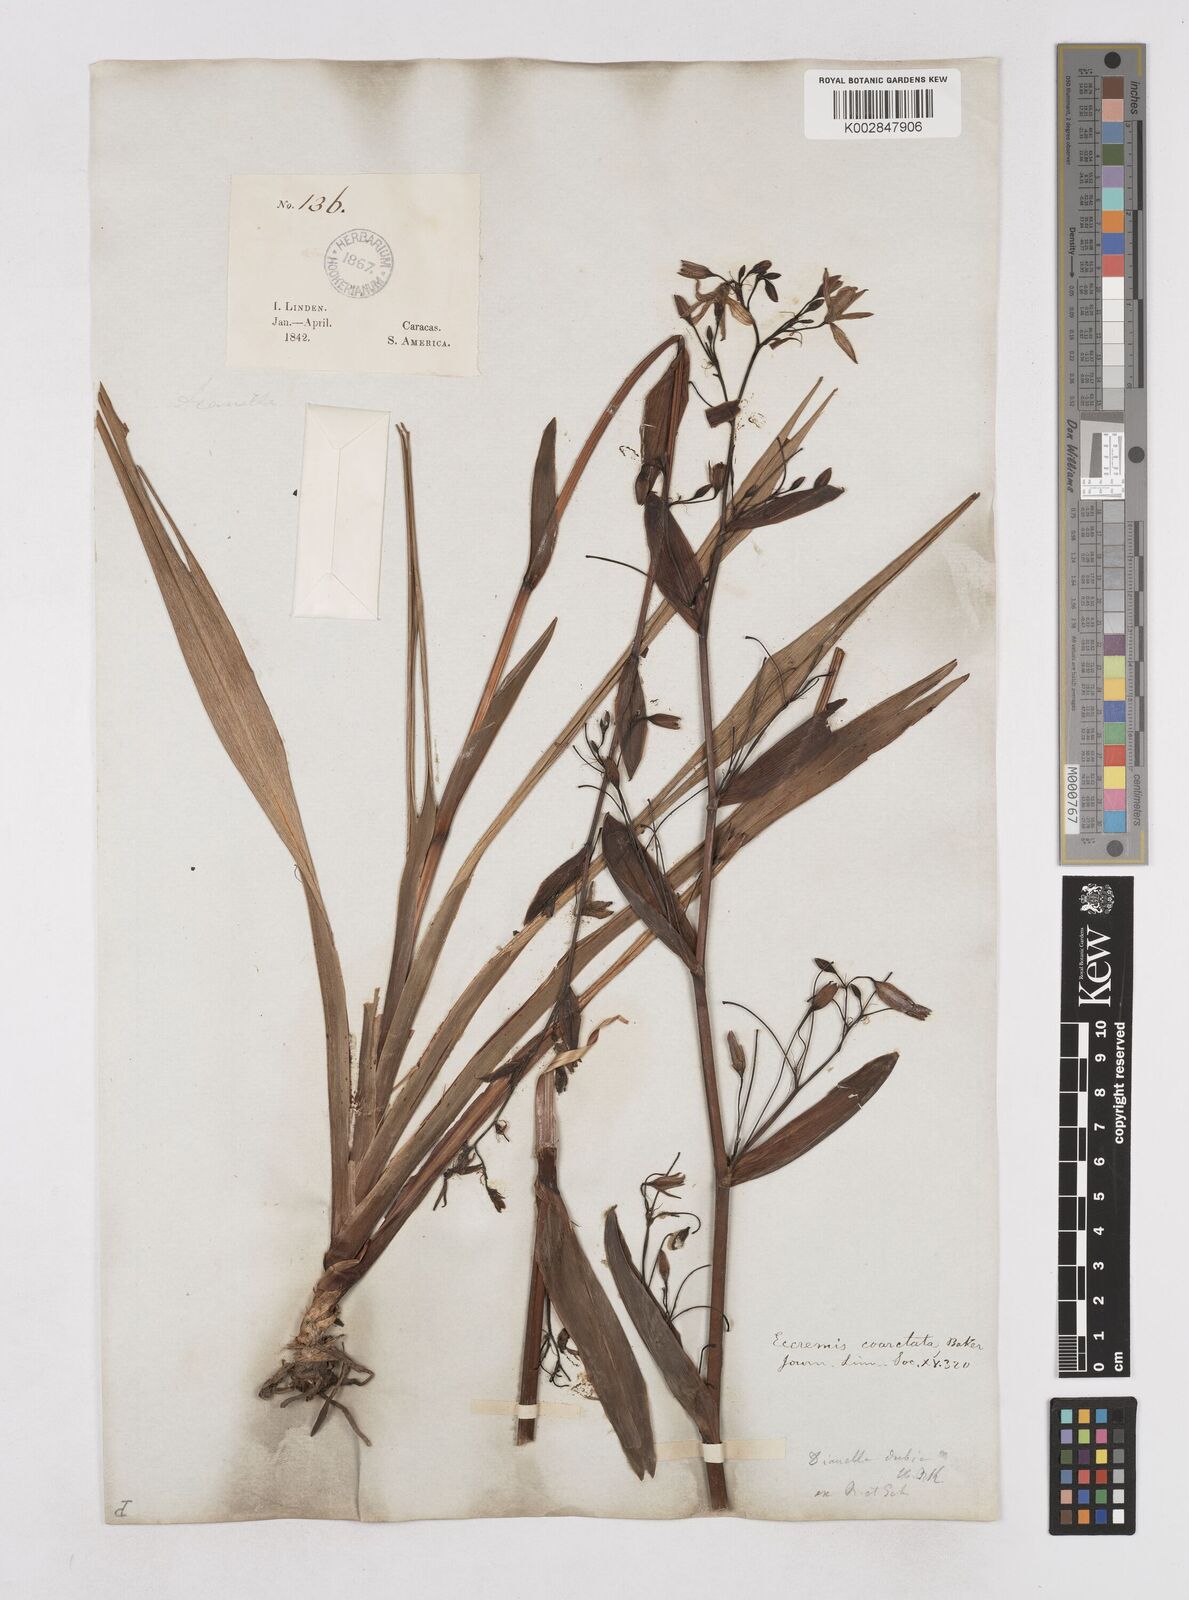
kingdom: Plantae
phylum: Tracheophyta
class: Liliopsida
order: Asparagales
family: Asphodelaceae
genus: Excremis
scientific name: Excremis coarctata
